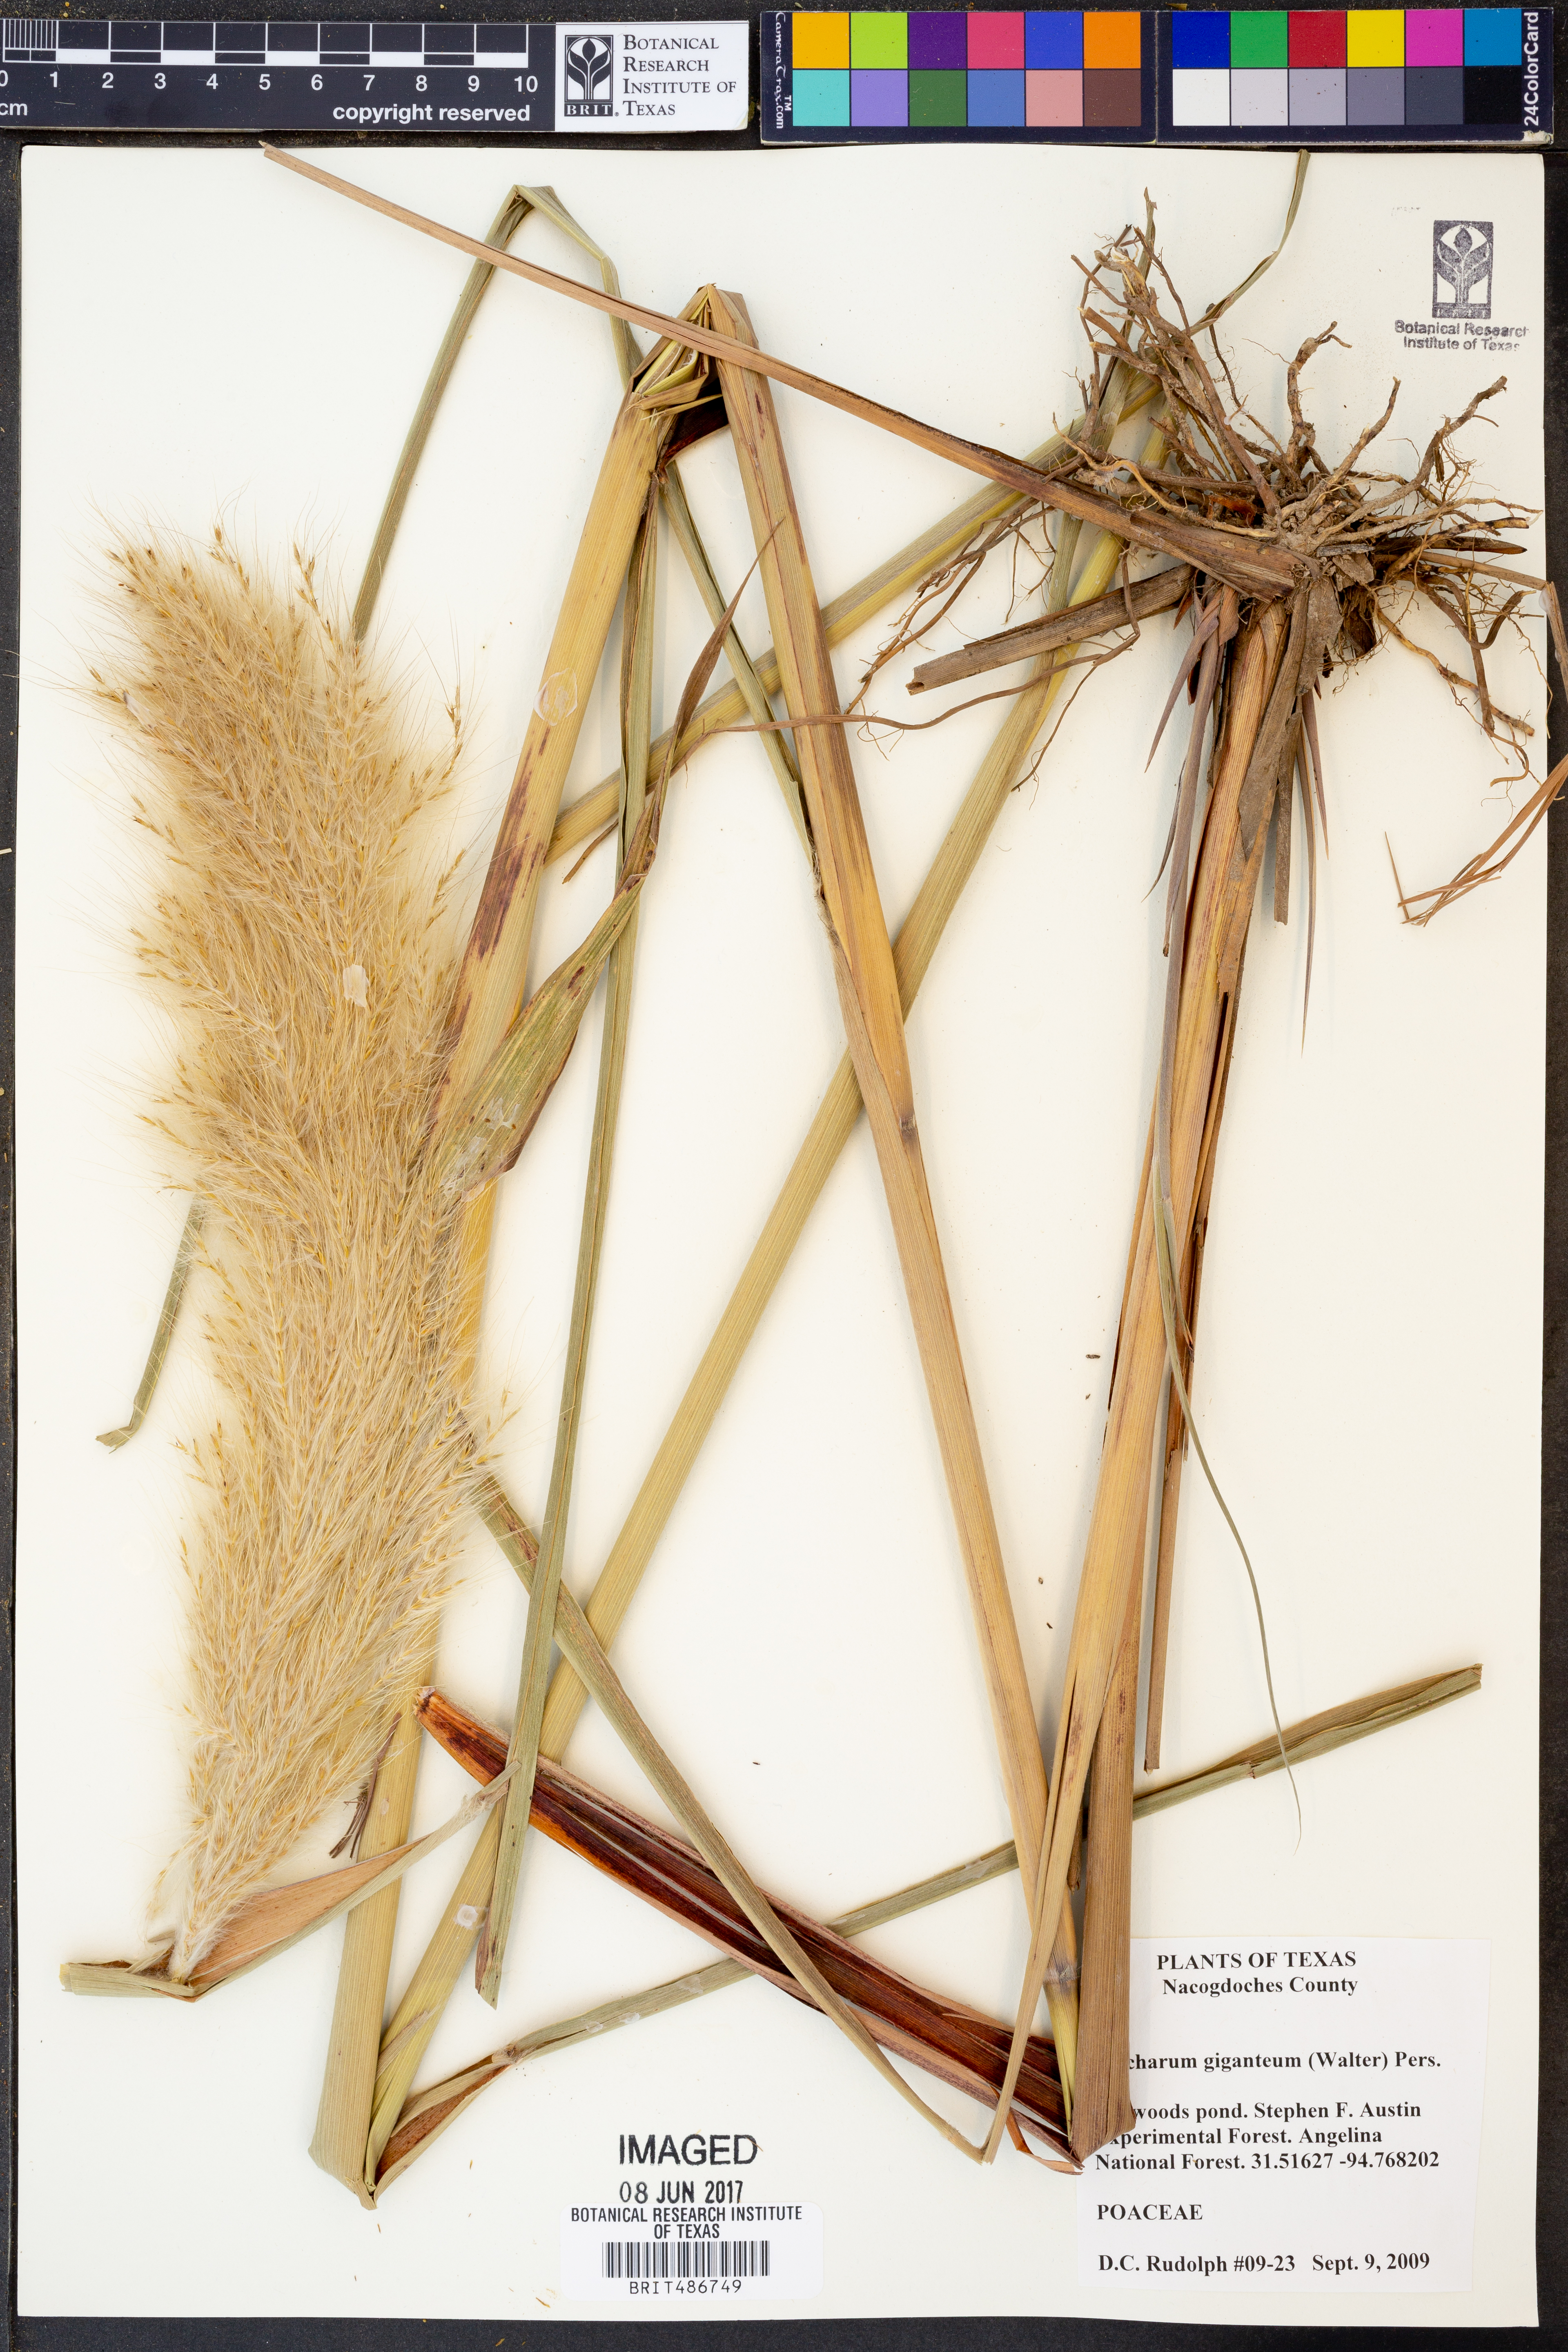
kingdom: Plantae
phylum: Tracheophyta
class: Liliopsida
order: Poales
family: Poaceae
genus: Erianthus
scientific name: Erianthus giganteus
